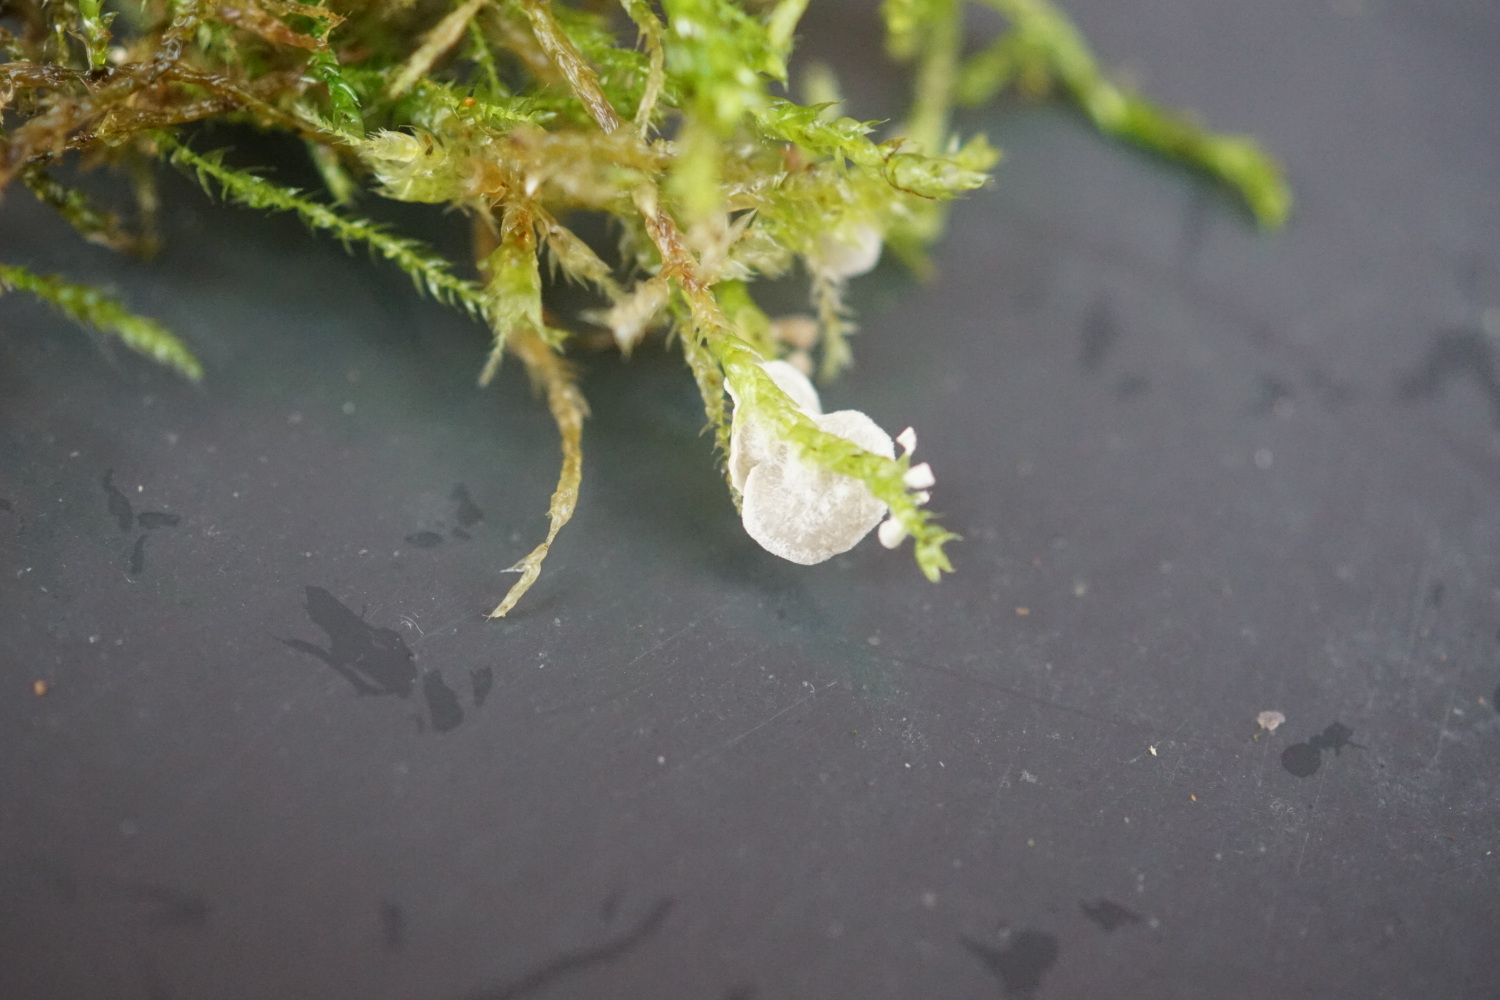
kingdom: Fungi
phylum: Basidiomycota
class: Agaricomycetes
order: Agaricales
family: Hygrophoraceae
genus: Arrhenia
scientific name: Arrhenia retiruga
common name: lille fontænehat
